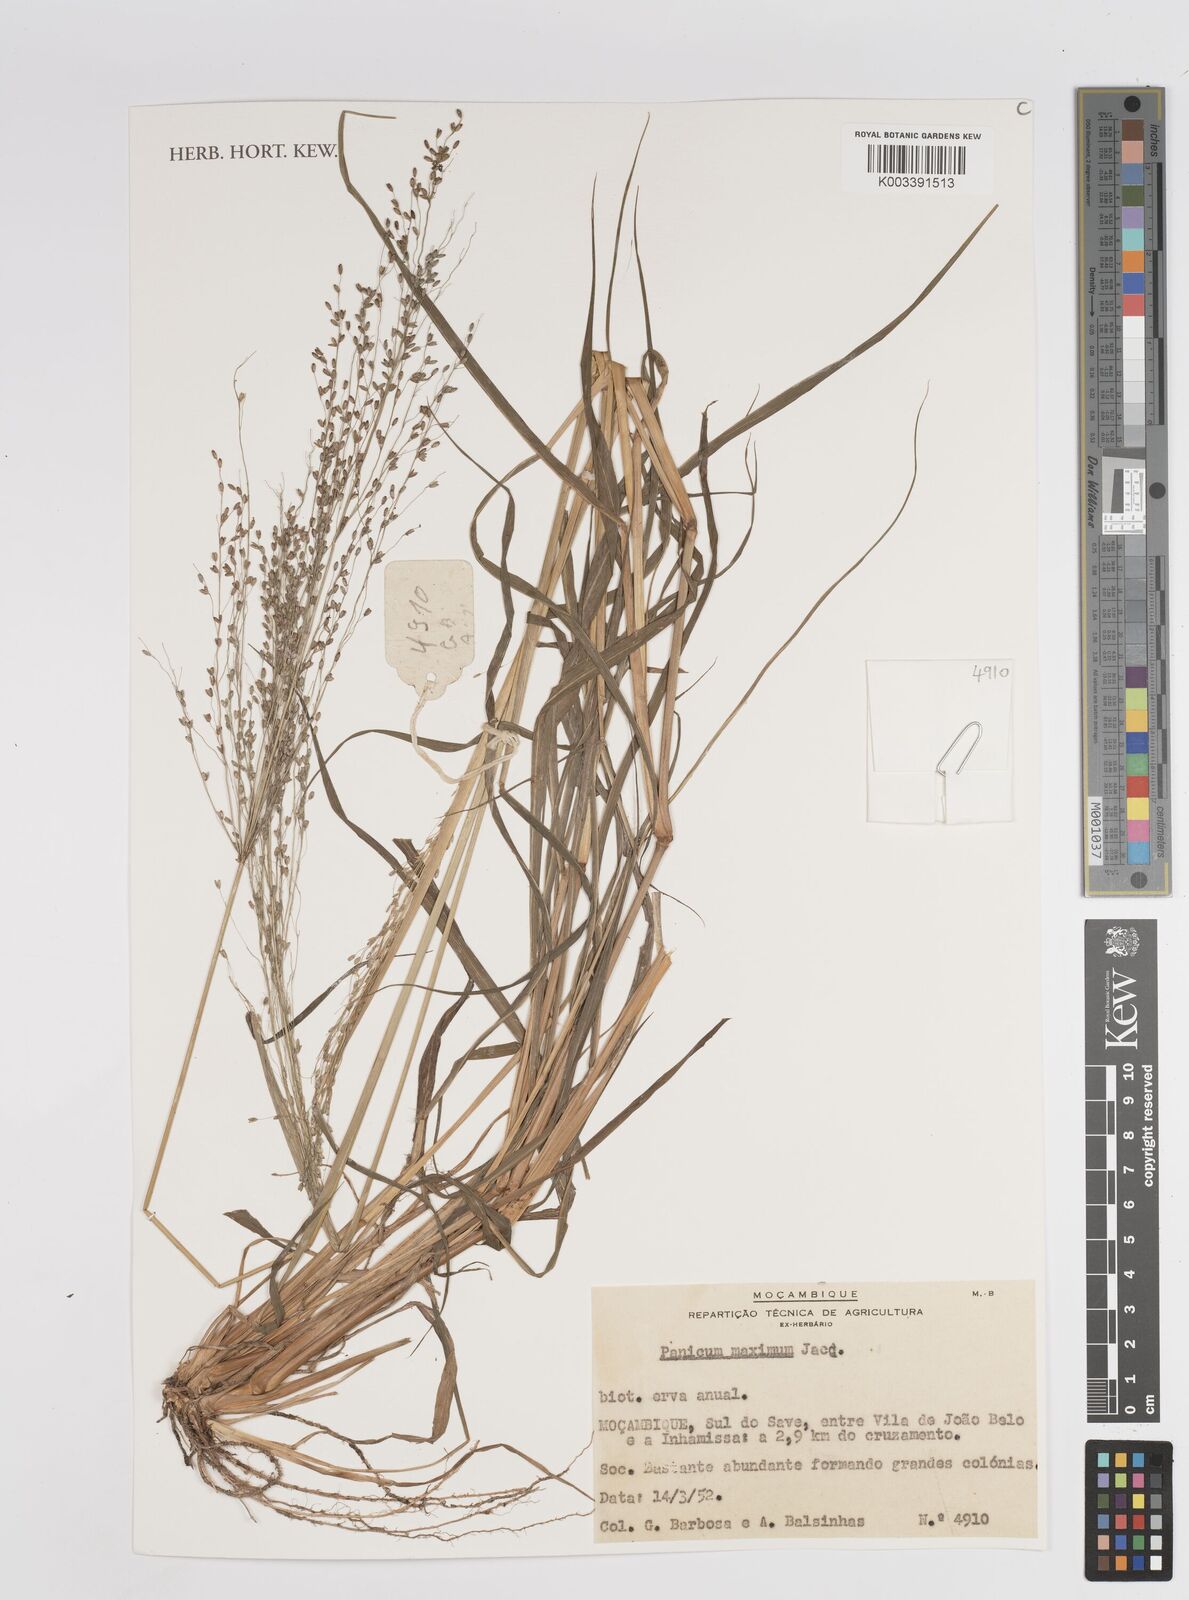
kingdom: Plantae
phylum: Tracheophyta
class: Liliopsida
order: Poales
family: Poaceae
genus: Megathyrsus
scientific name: Megathyrsus maximus
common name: Guineagrass
